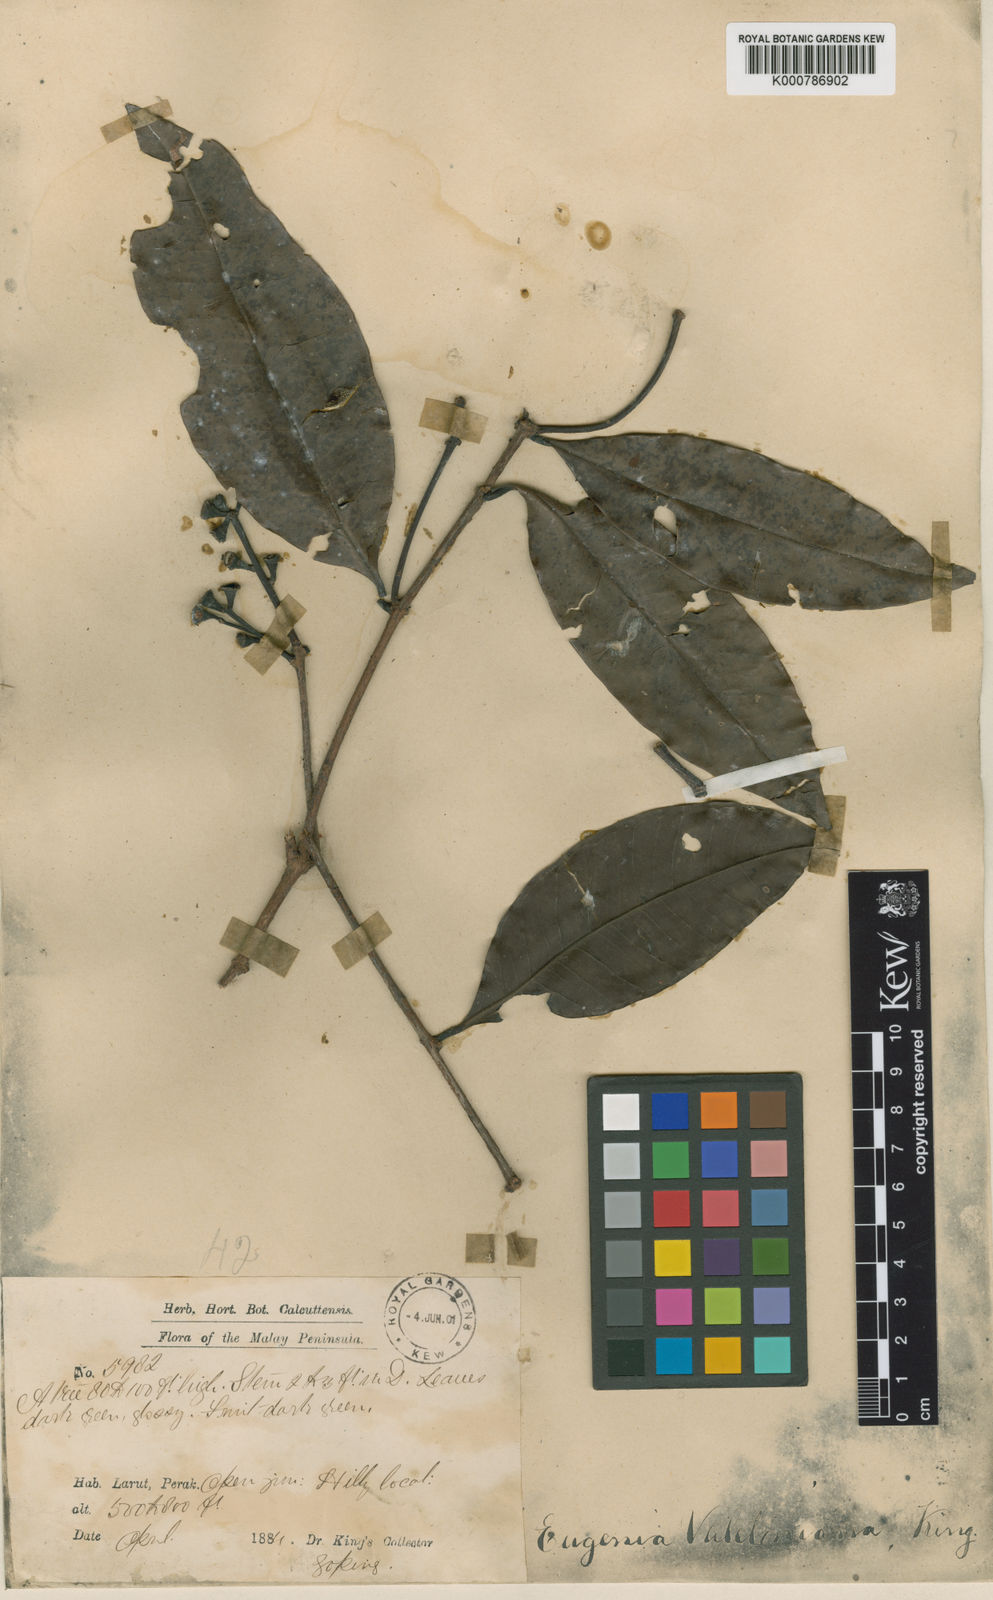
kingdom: Plantae
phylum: Tracheophyta
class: Magnoliopsida
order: Myrtales
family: Myrtaceae
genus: Syzygium
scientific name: Syzygium griffithii
